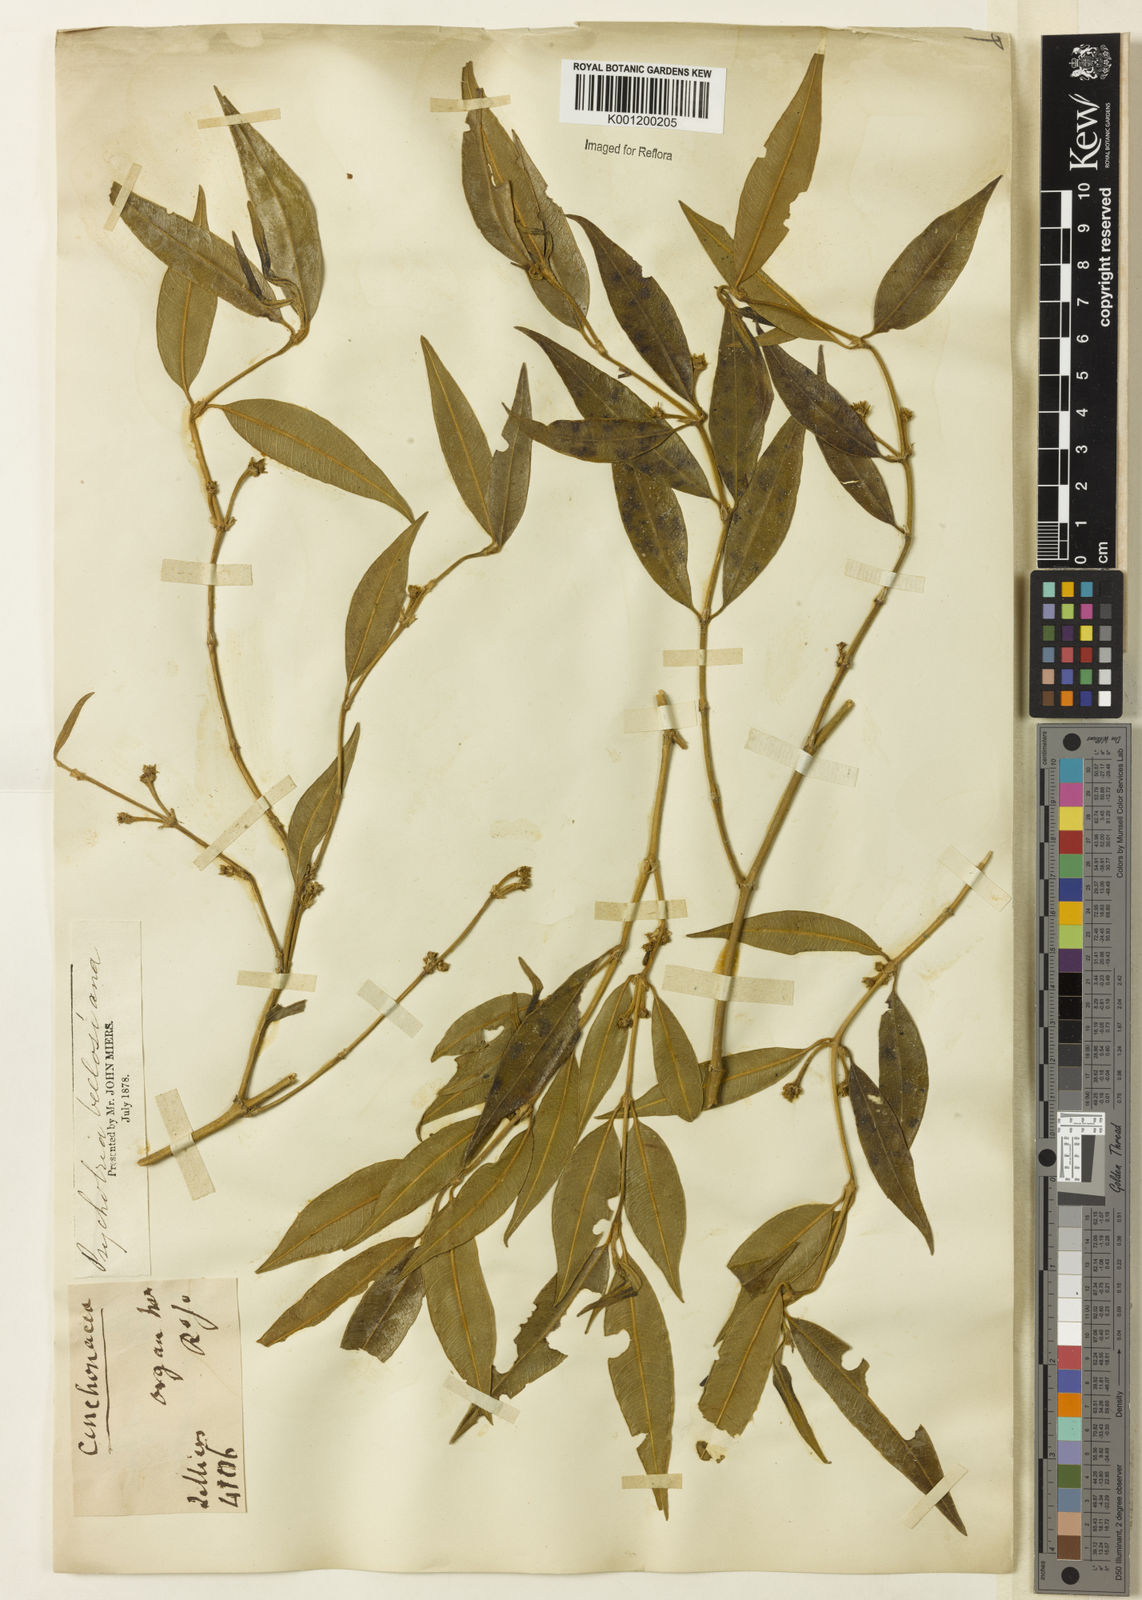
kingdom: Plantae
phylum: Tracheophyta
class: Magnoliopsida
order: Gentianales
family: Rubiaceae
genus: Rudgea
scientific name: Rudgea sessilis
